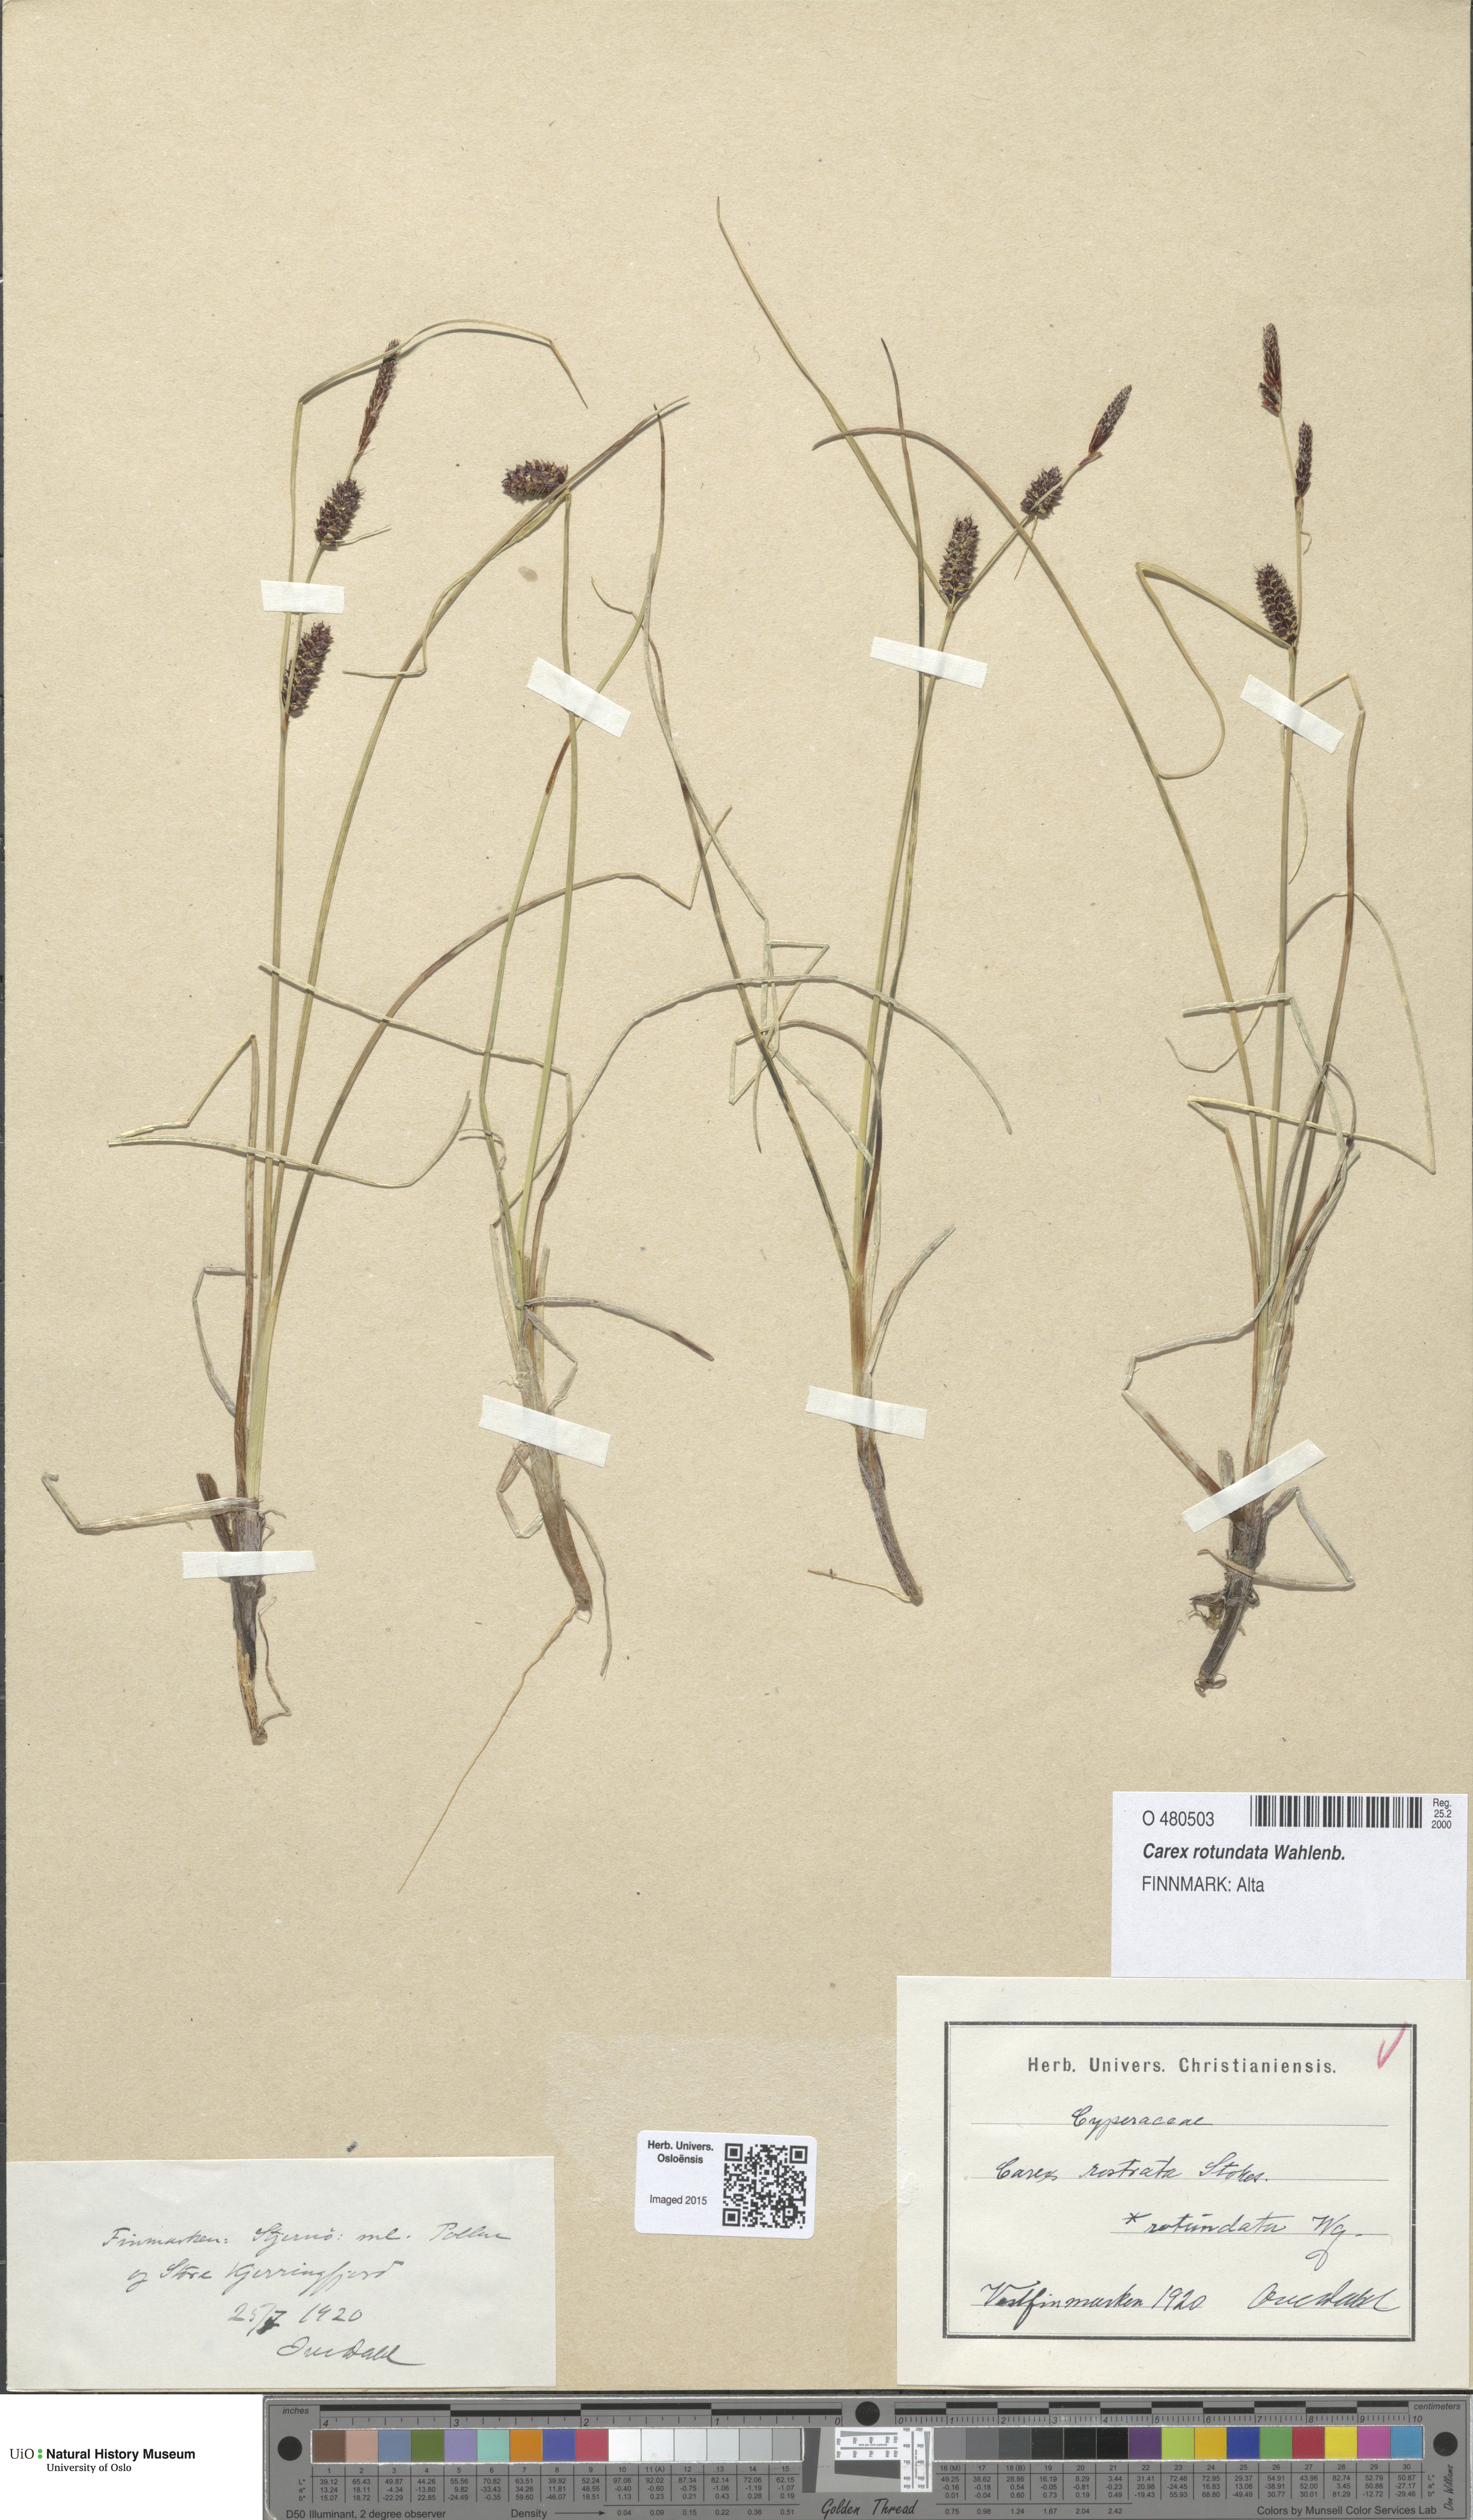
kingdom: Plantae
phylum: Tracheophyta
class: Liliopsida
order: Poales
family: Cyperaceae
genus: Carex
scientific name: Carex rotundata
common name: Round-fruited sedge
